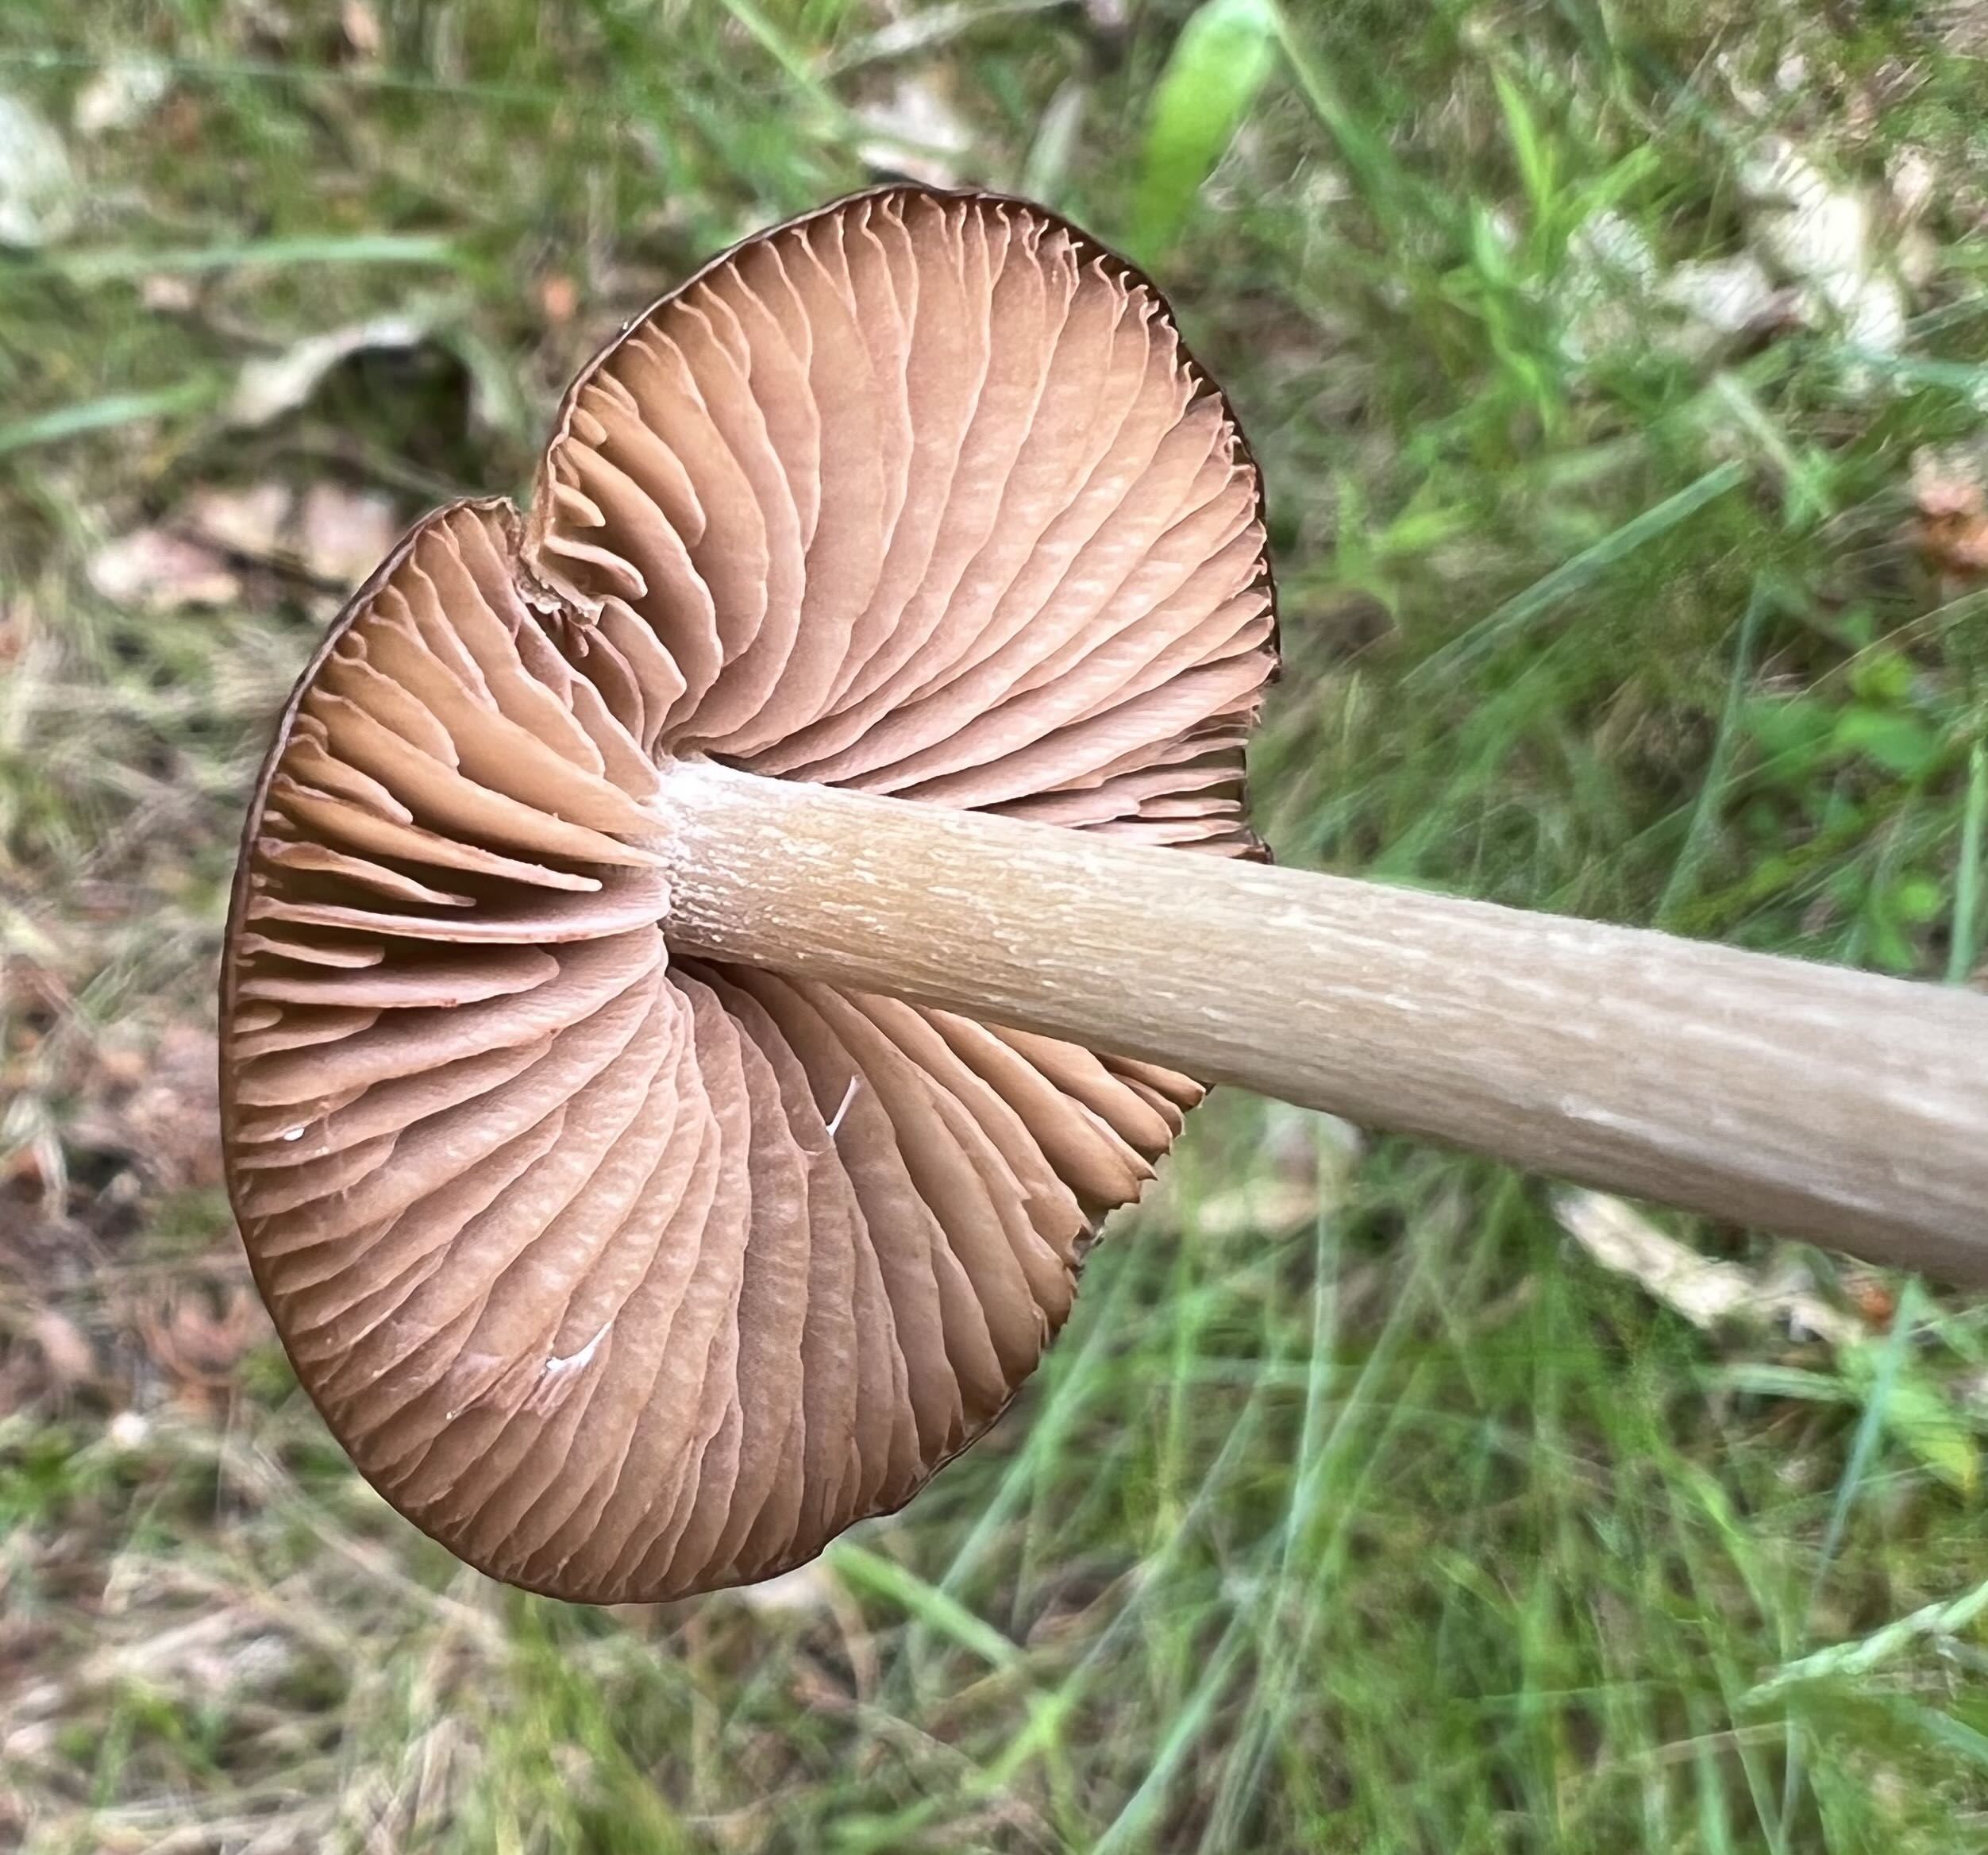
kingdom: Fungi
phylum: Basidiomycota
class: Agaricomycetes
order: Agaricales
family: Entolomataceae
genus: Entoloma
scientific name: Entoloma
